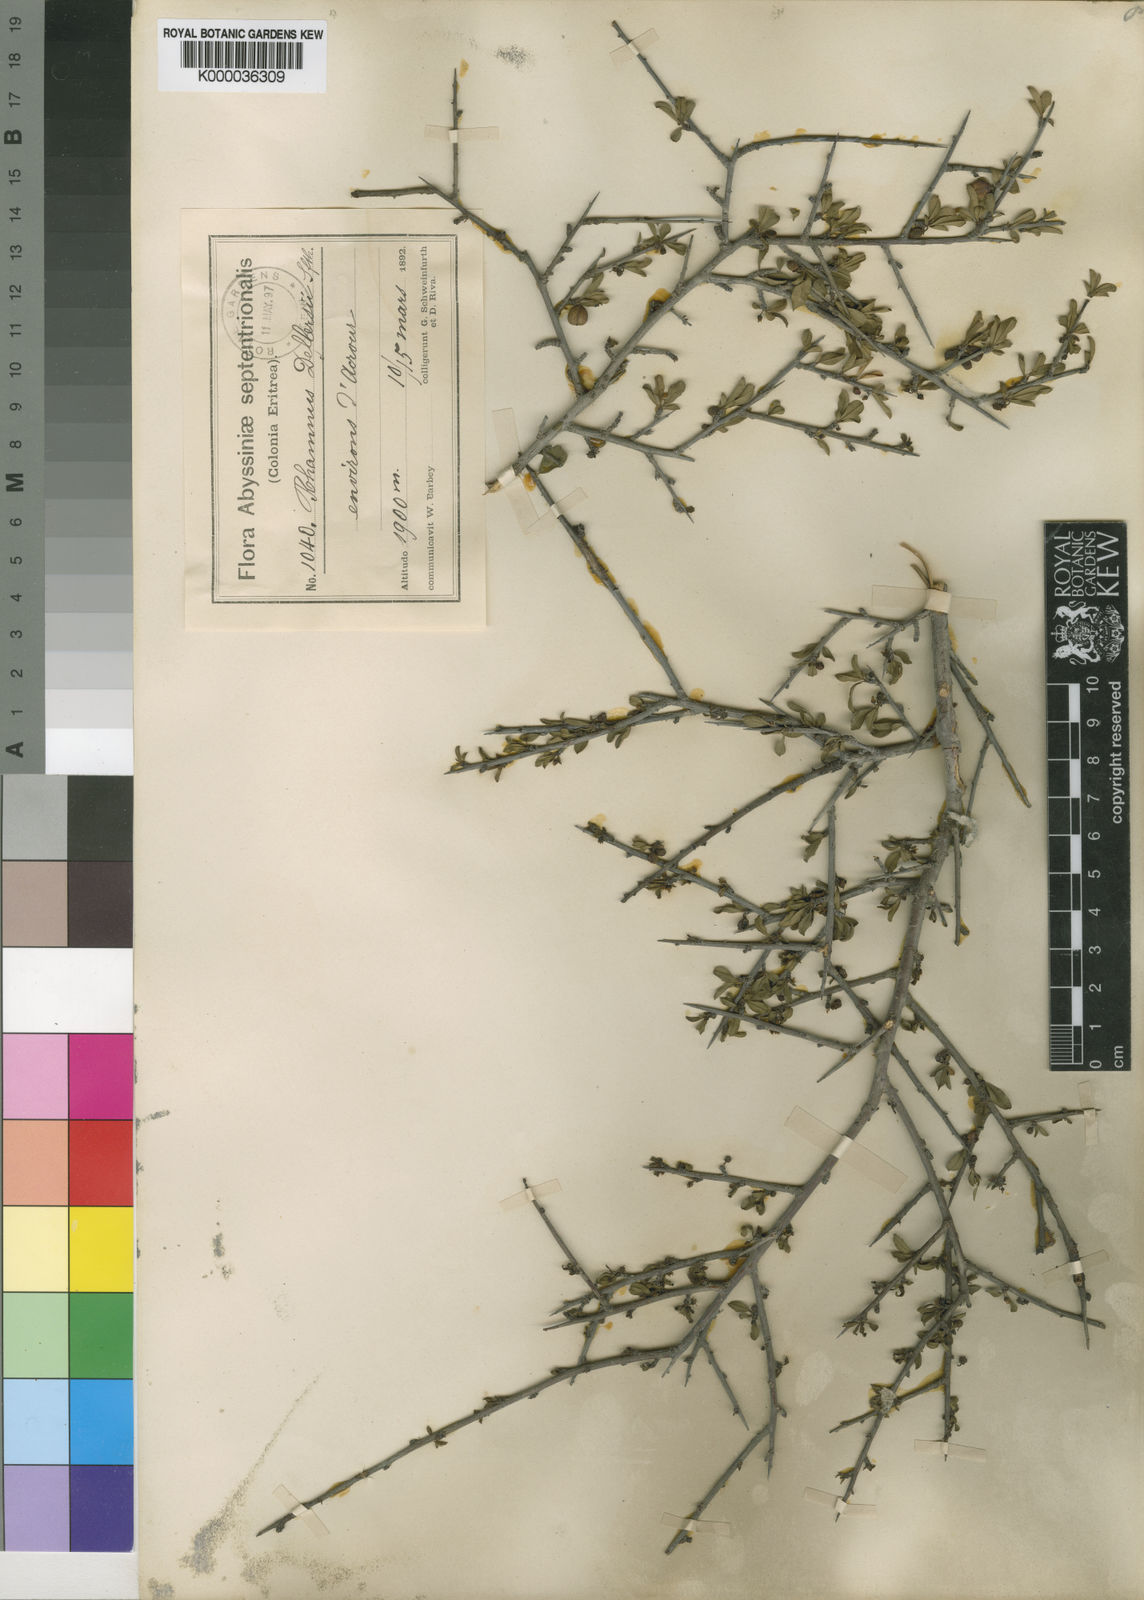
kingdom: Plantae
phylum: Tracheophyta
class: Magnoliopsida
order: Rosales
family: Rhamnaceae
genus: Rhamnus
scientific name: Rhamnus staddo
